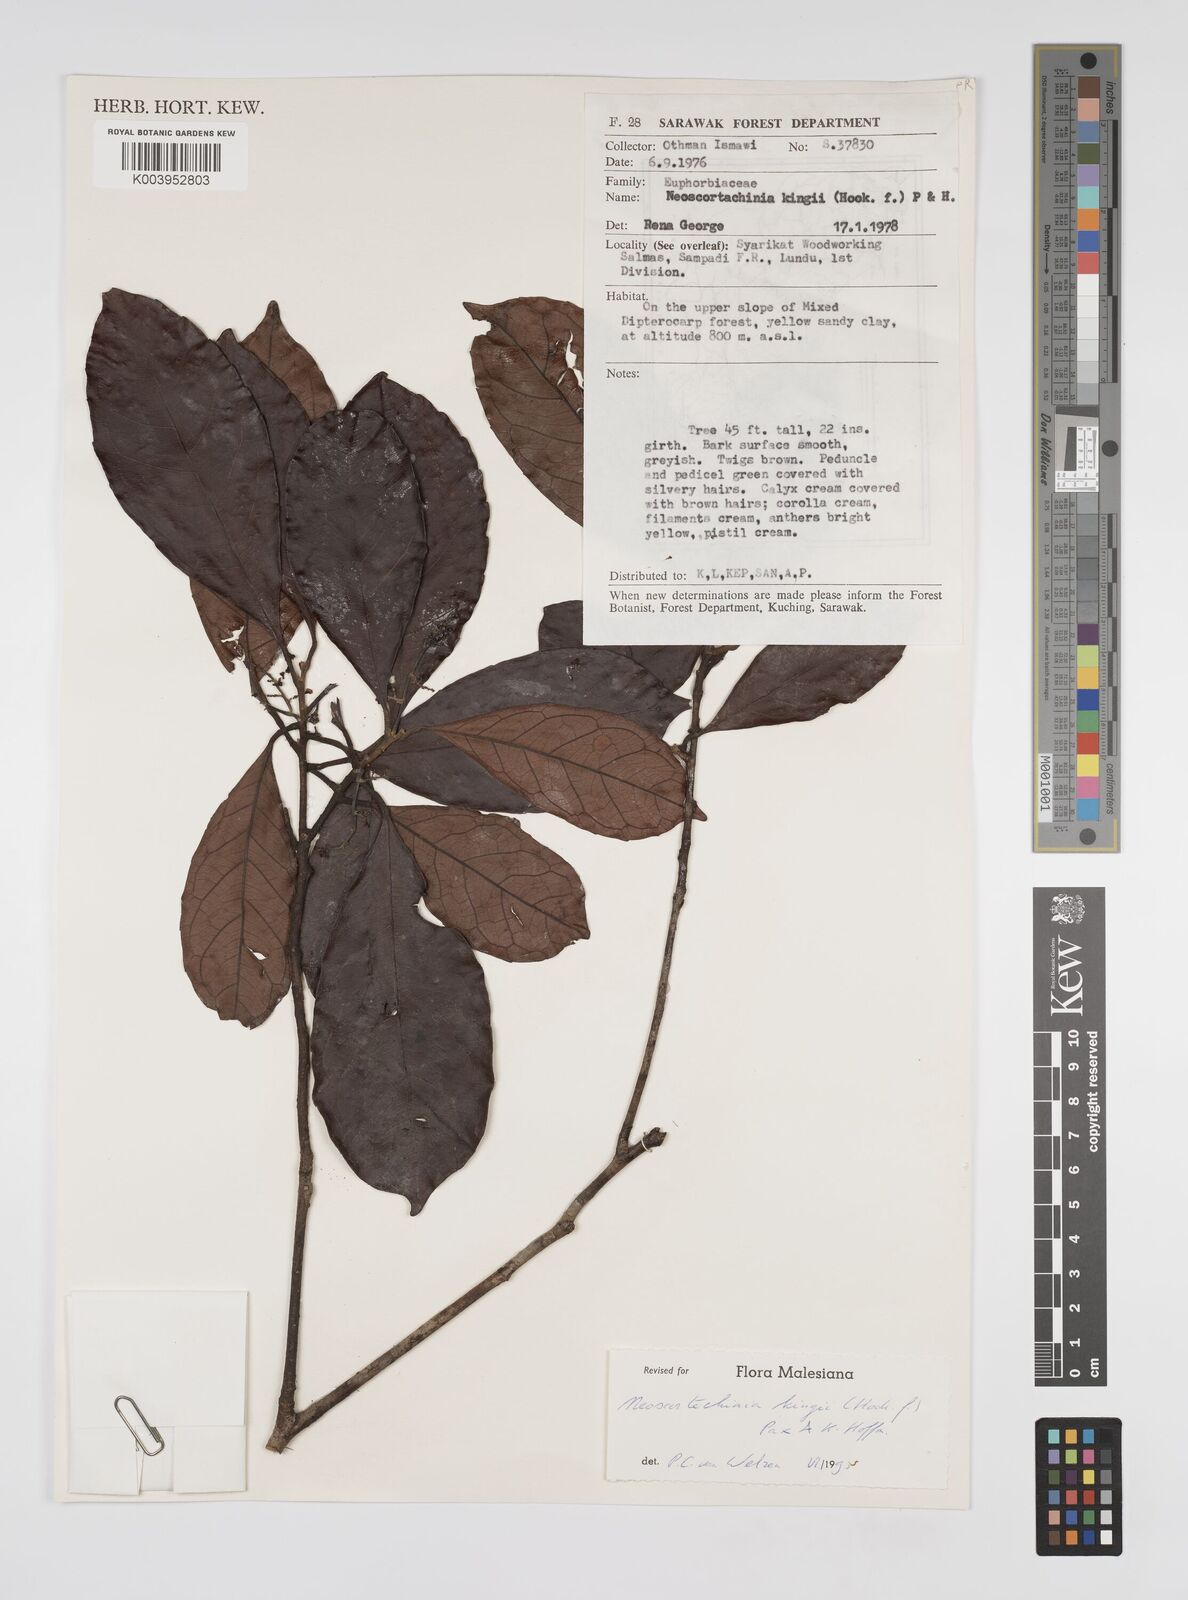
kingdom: Plantae
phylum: Tracheophyta
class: Magnoliopsida
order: Malpighiales
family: Euphorbiaceae
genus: Neoscortechinia
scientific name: Neoscortechinia kingii
